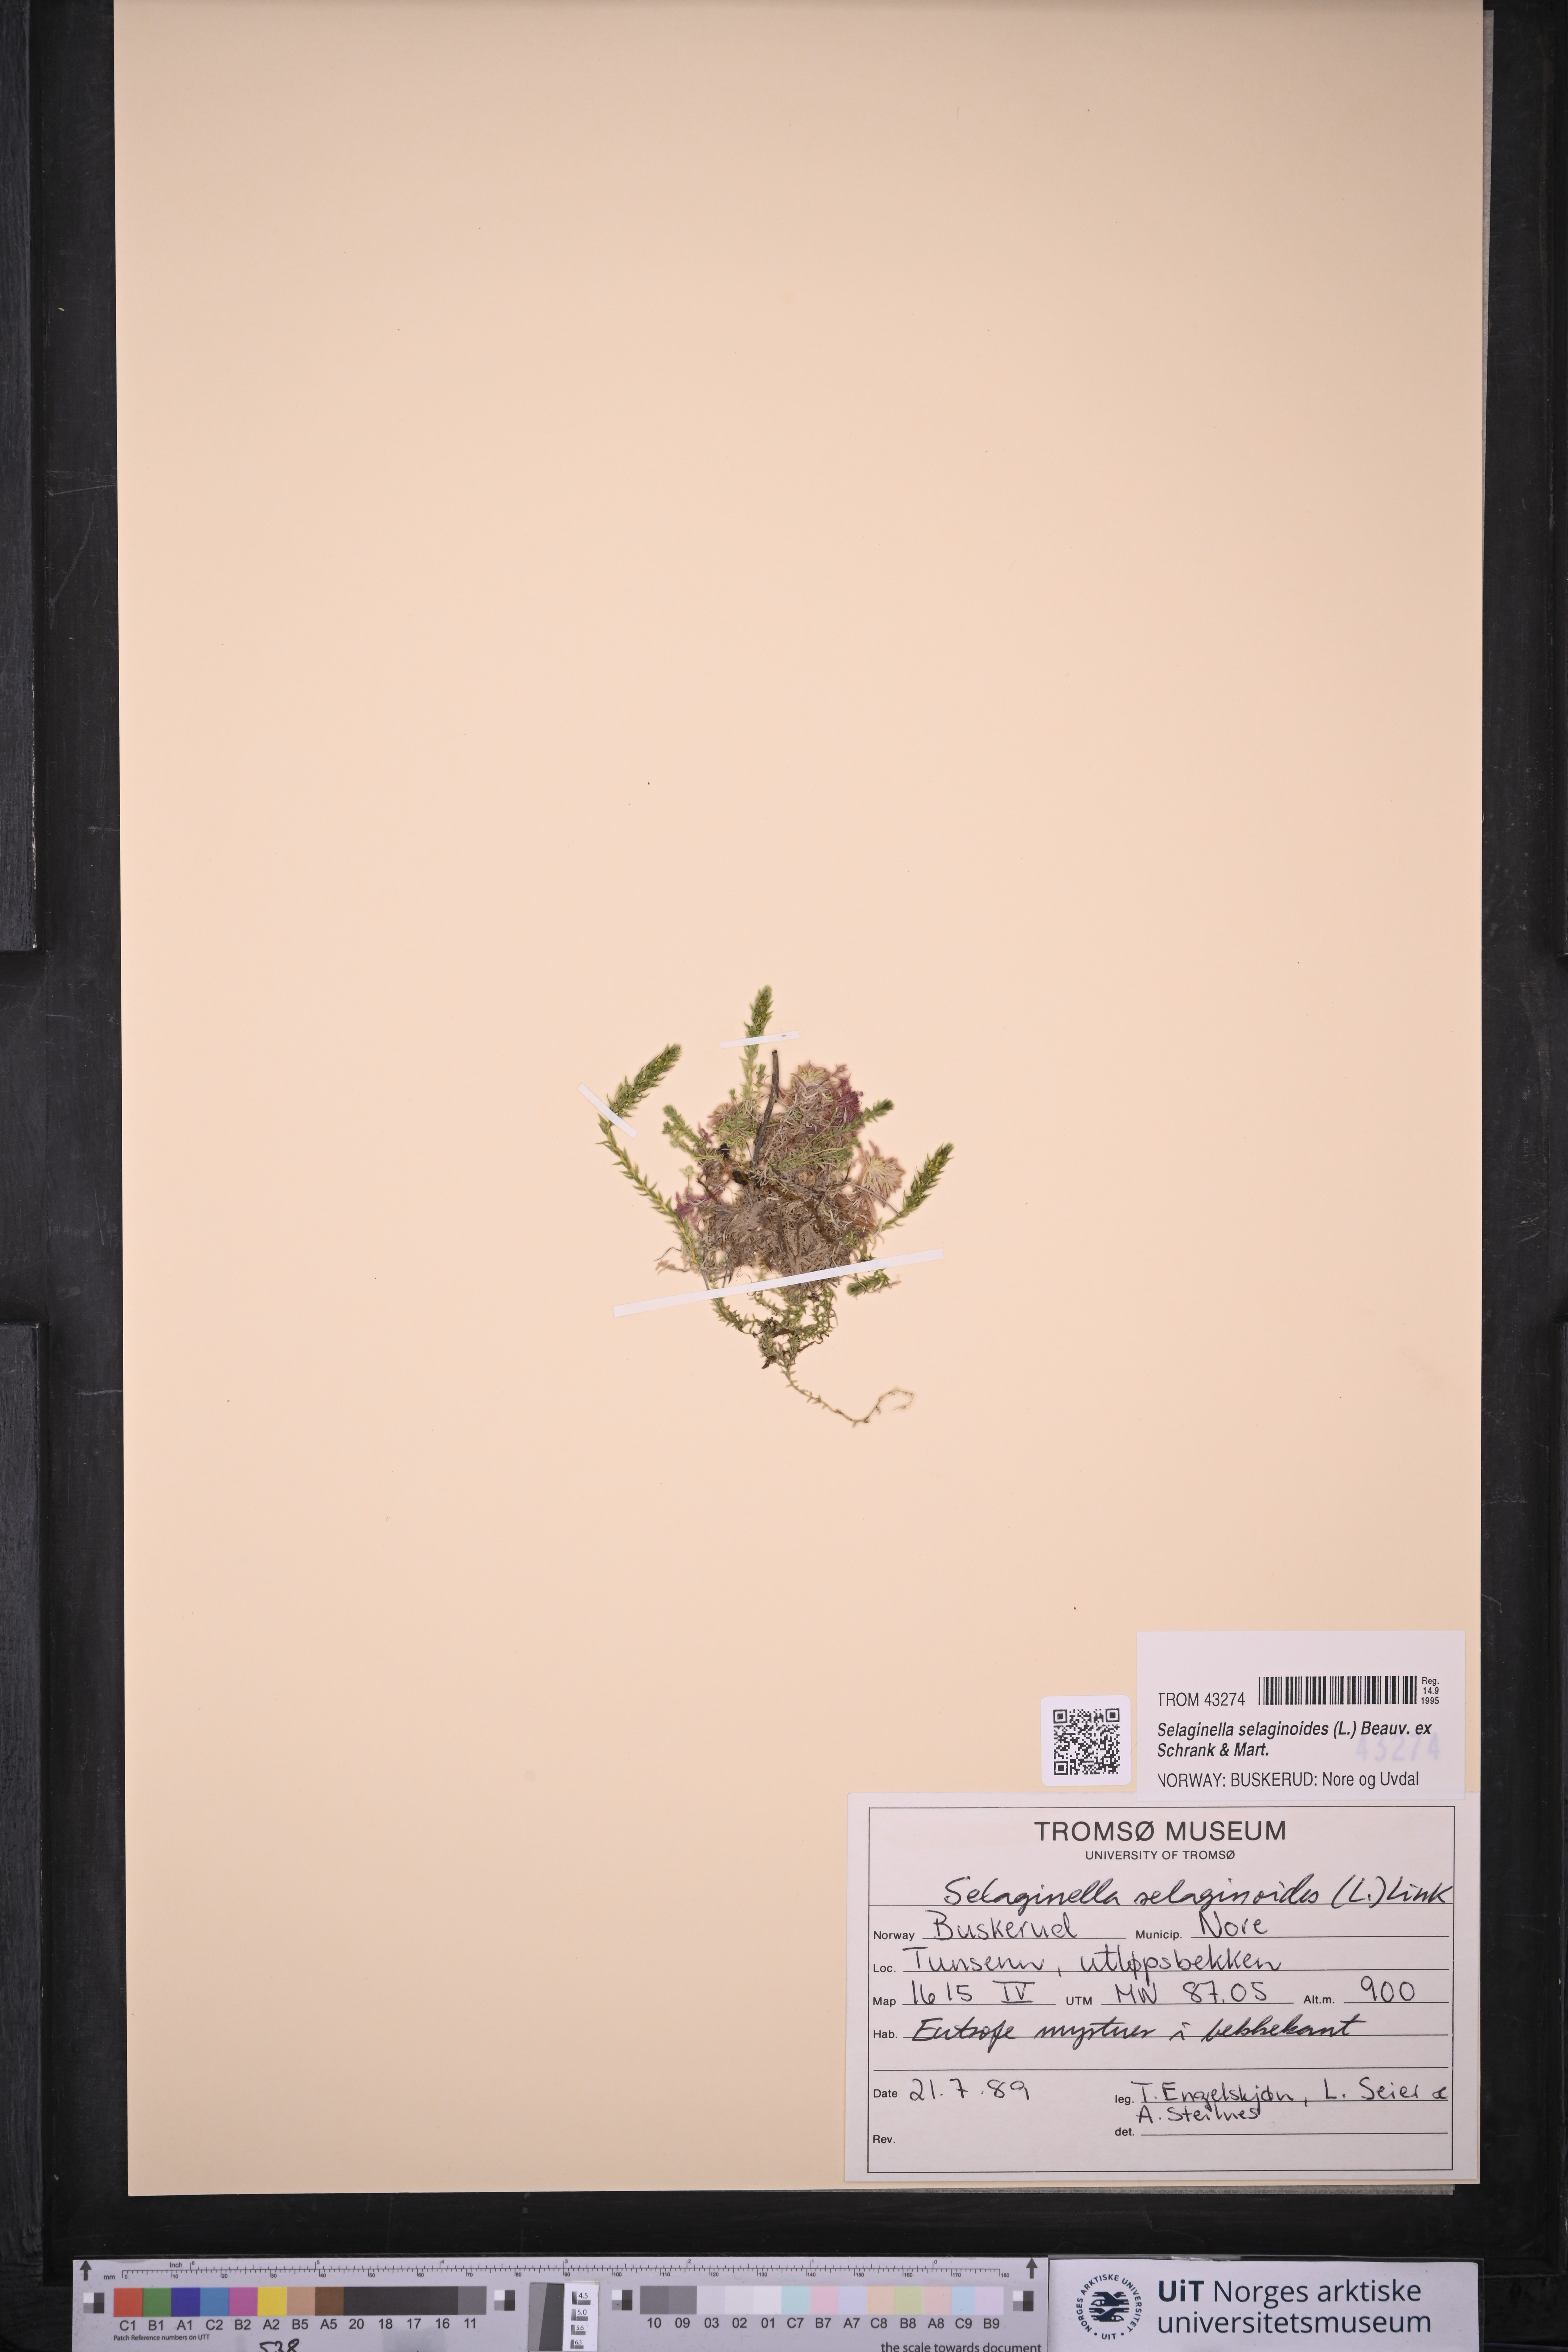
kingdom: Plantae
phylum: Tracheophyta
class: Lycopodiopsida
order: Selaginellales
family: Selaginellaceae
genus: Selaginella
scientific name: Selaginella selaginoides
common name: Prickly mountain-moss
